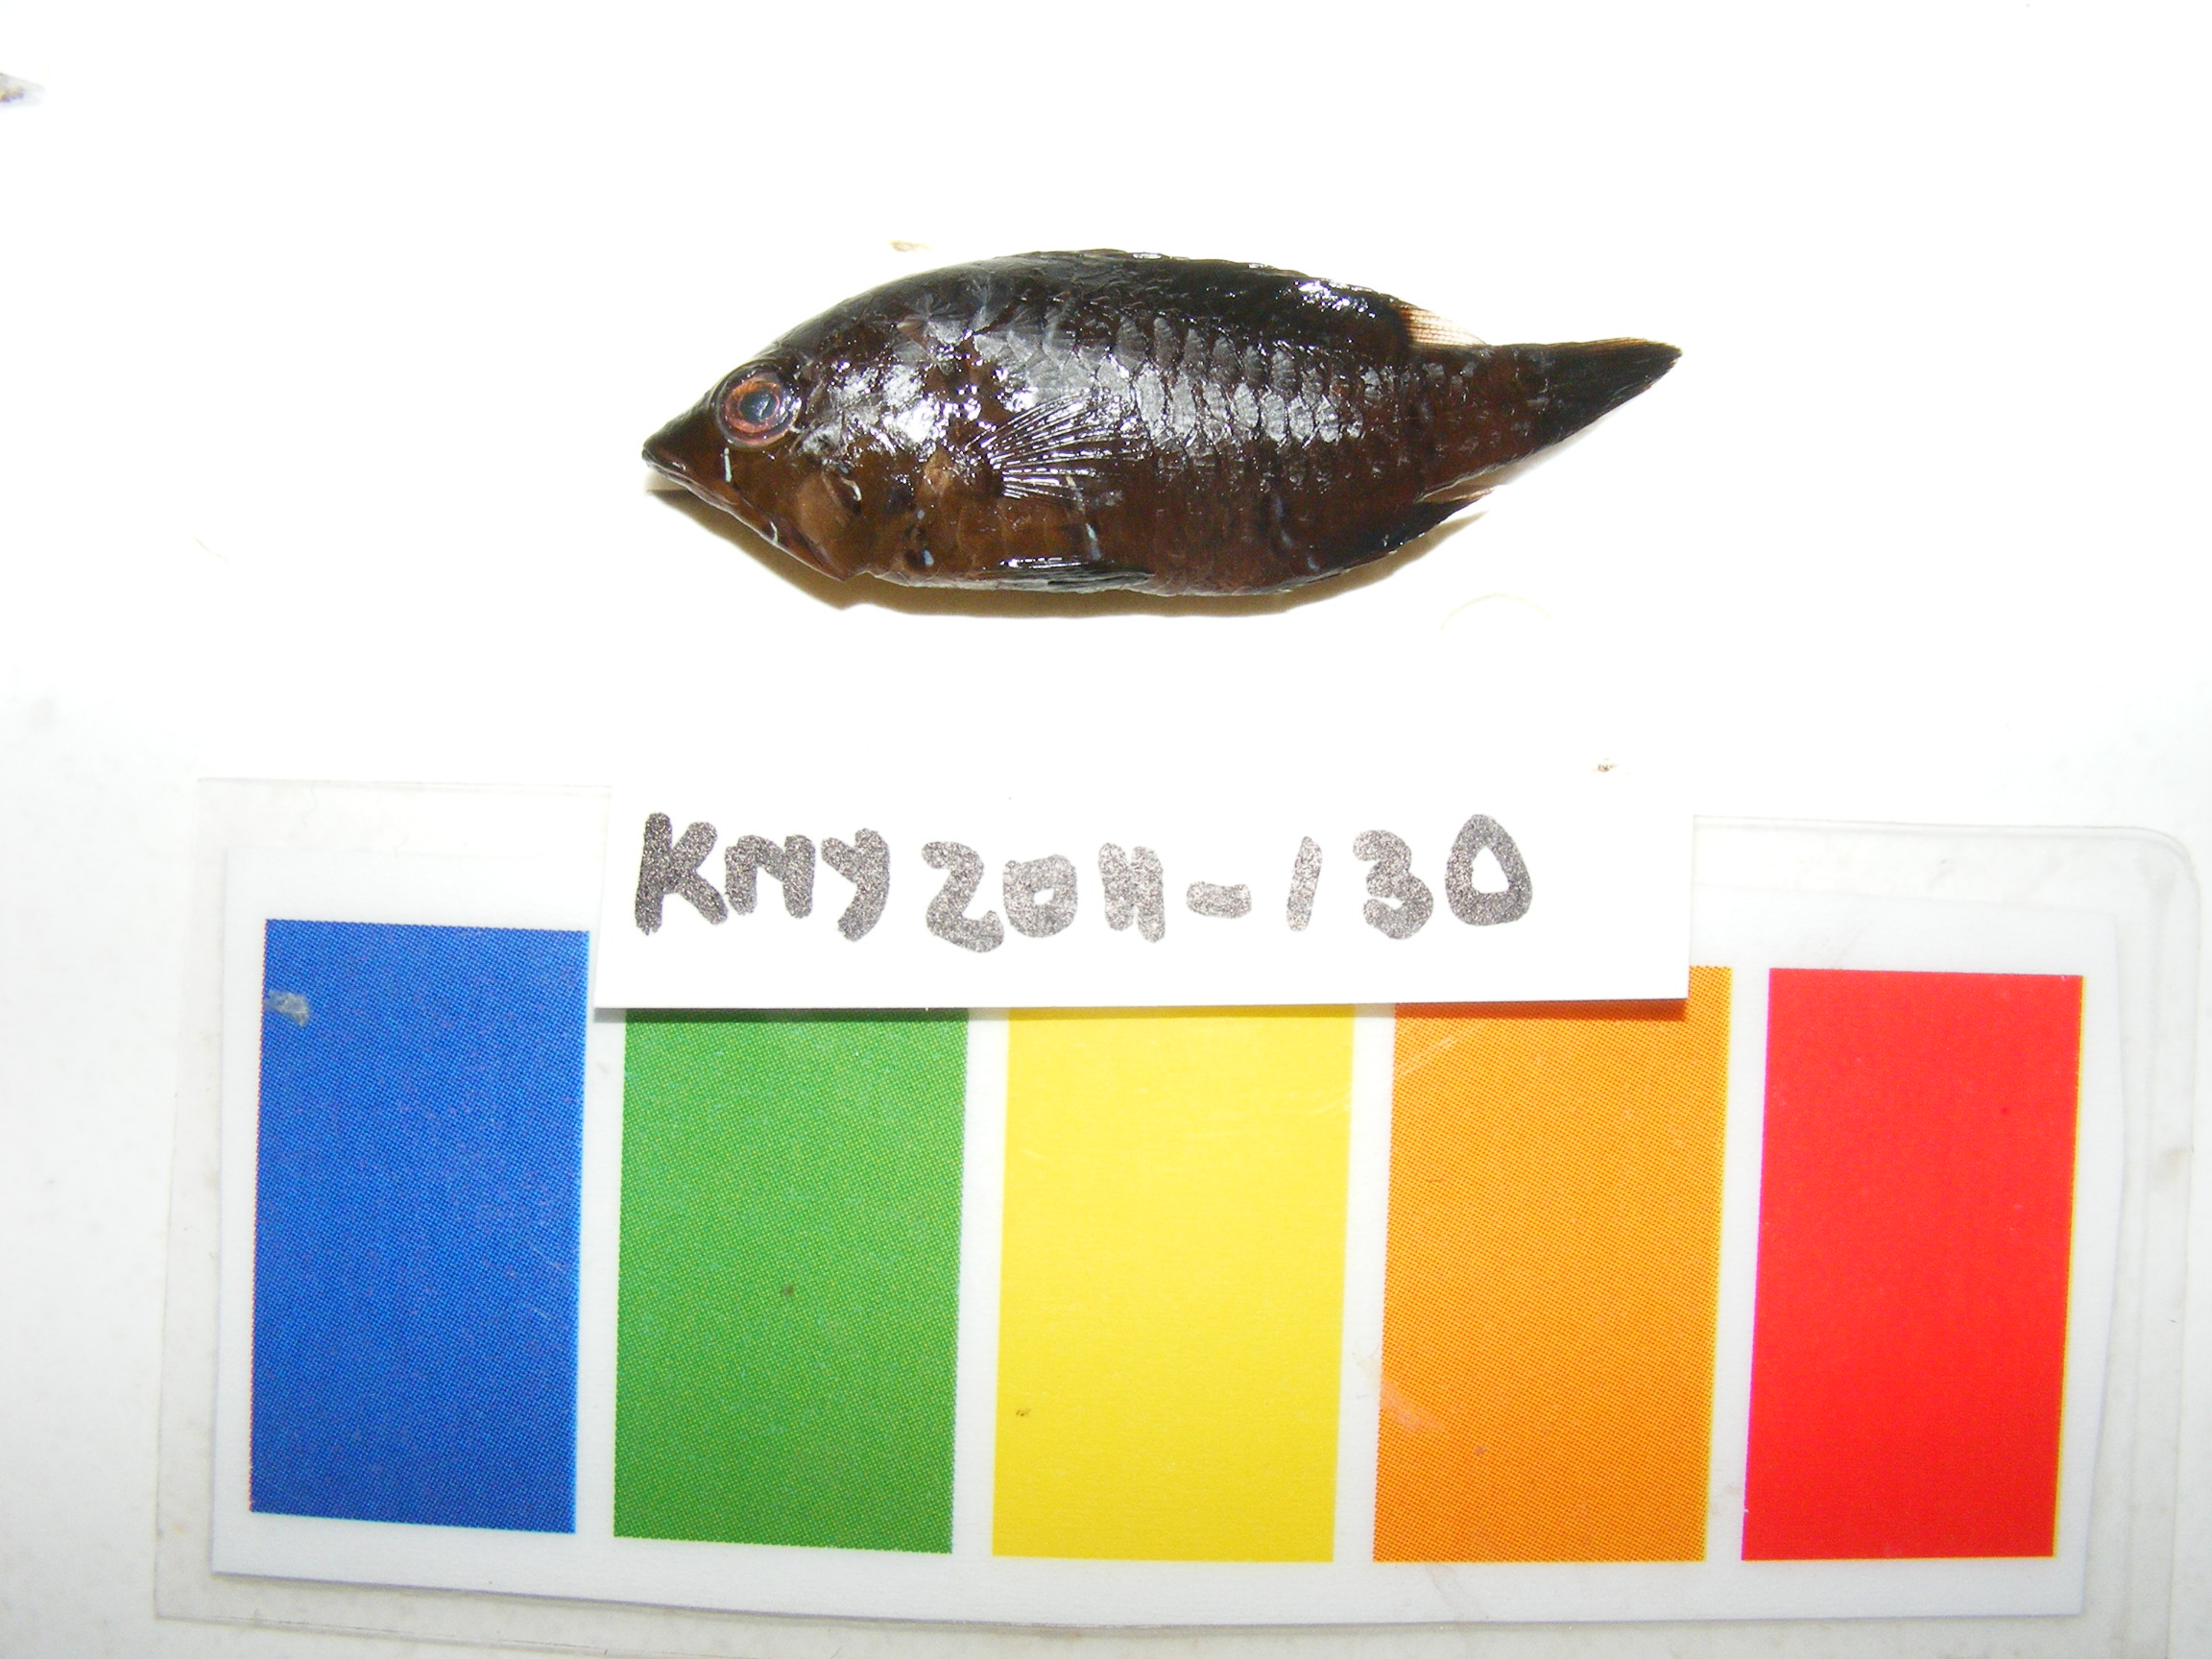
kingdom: Animalia
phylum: Chordata
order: Perciformes
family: Labridae
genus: Epibulus
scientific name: Epibulus insidiator
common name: Slingjaw wrasse
